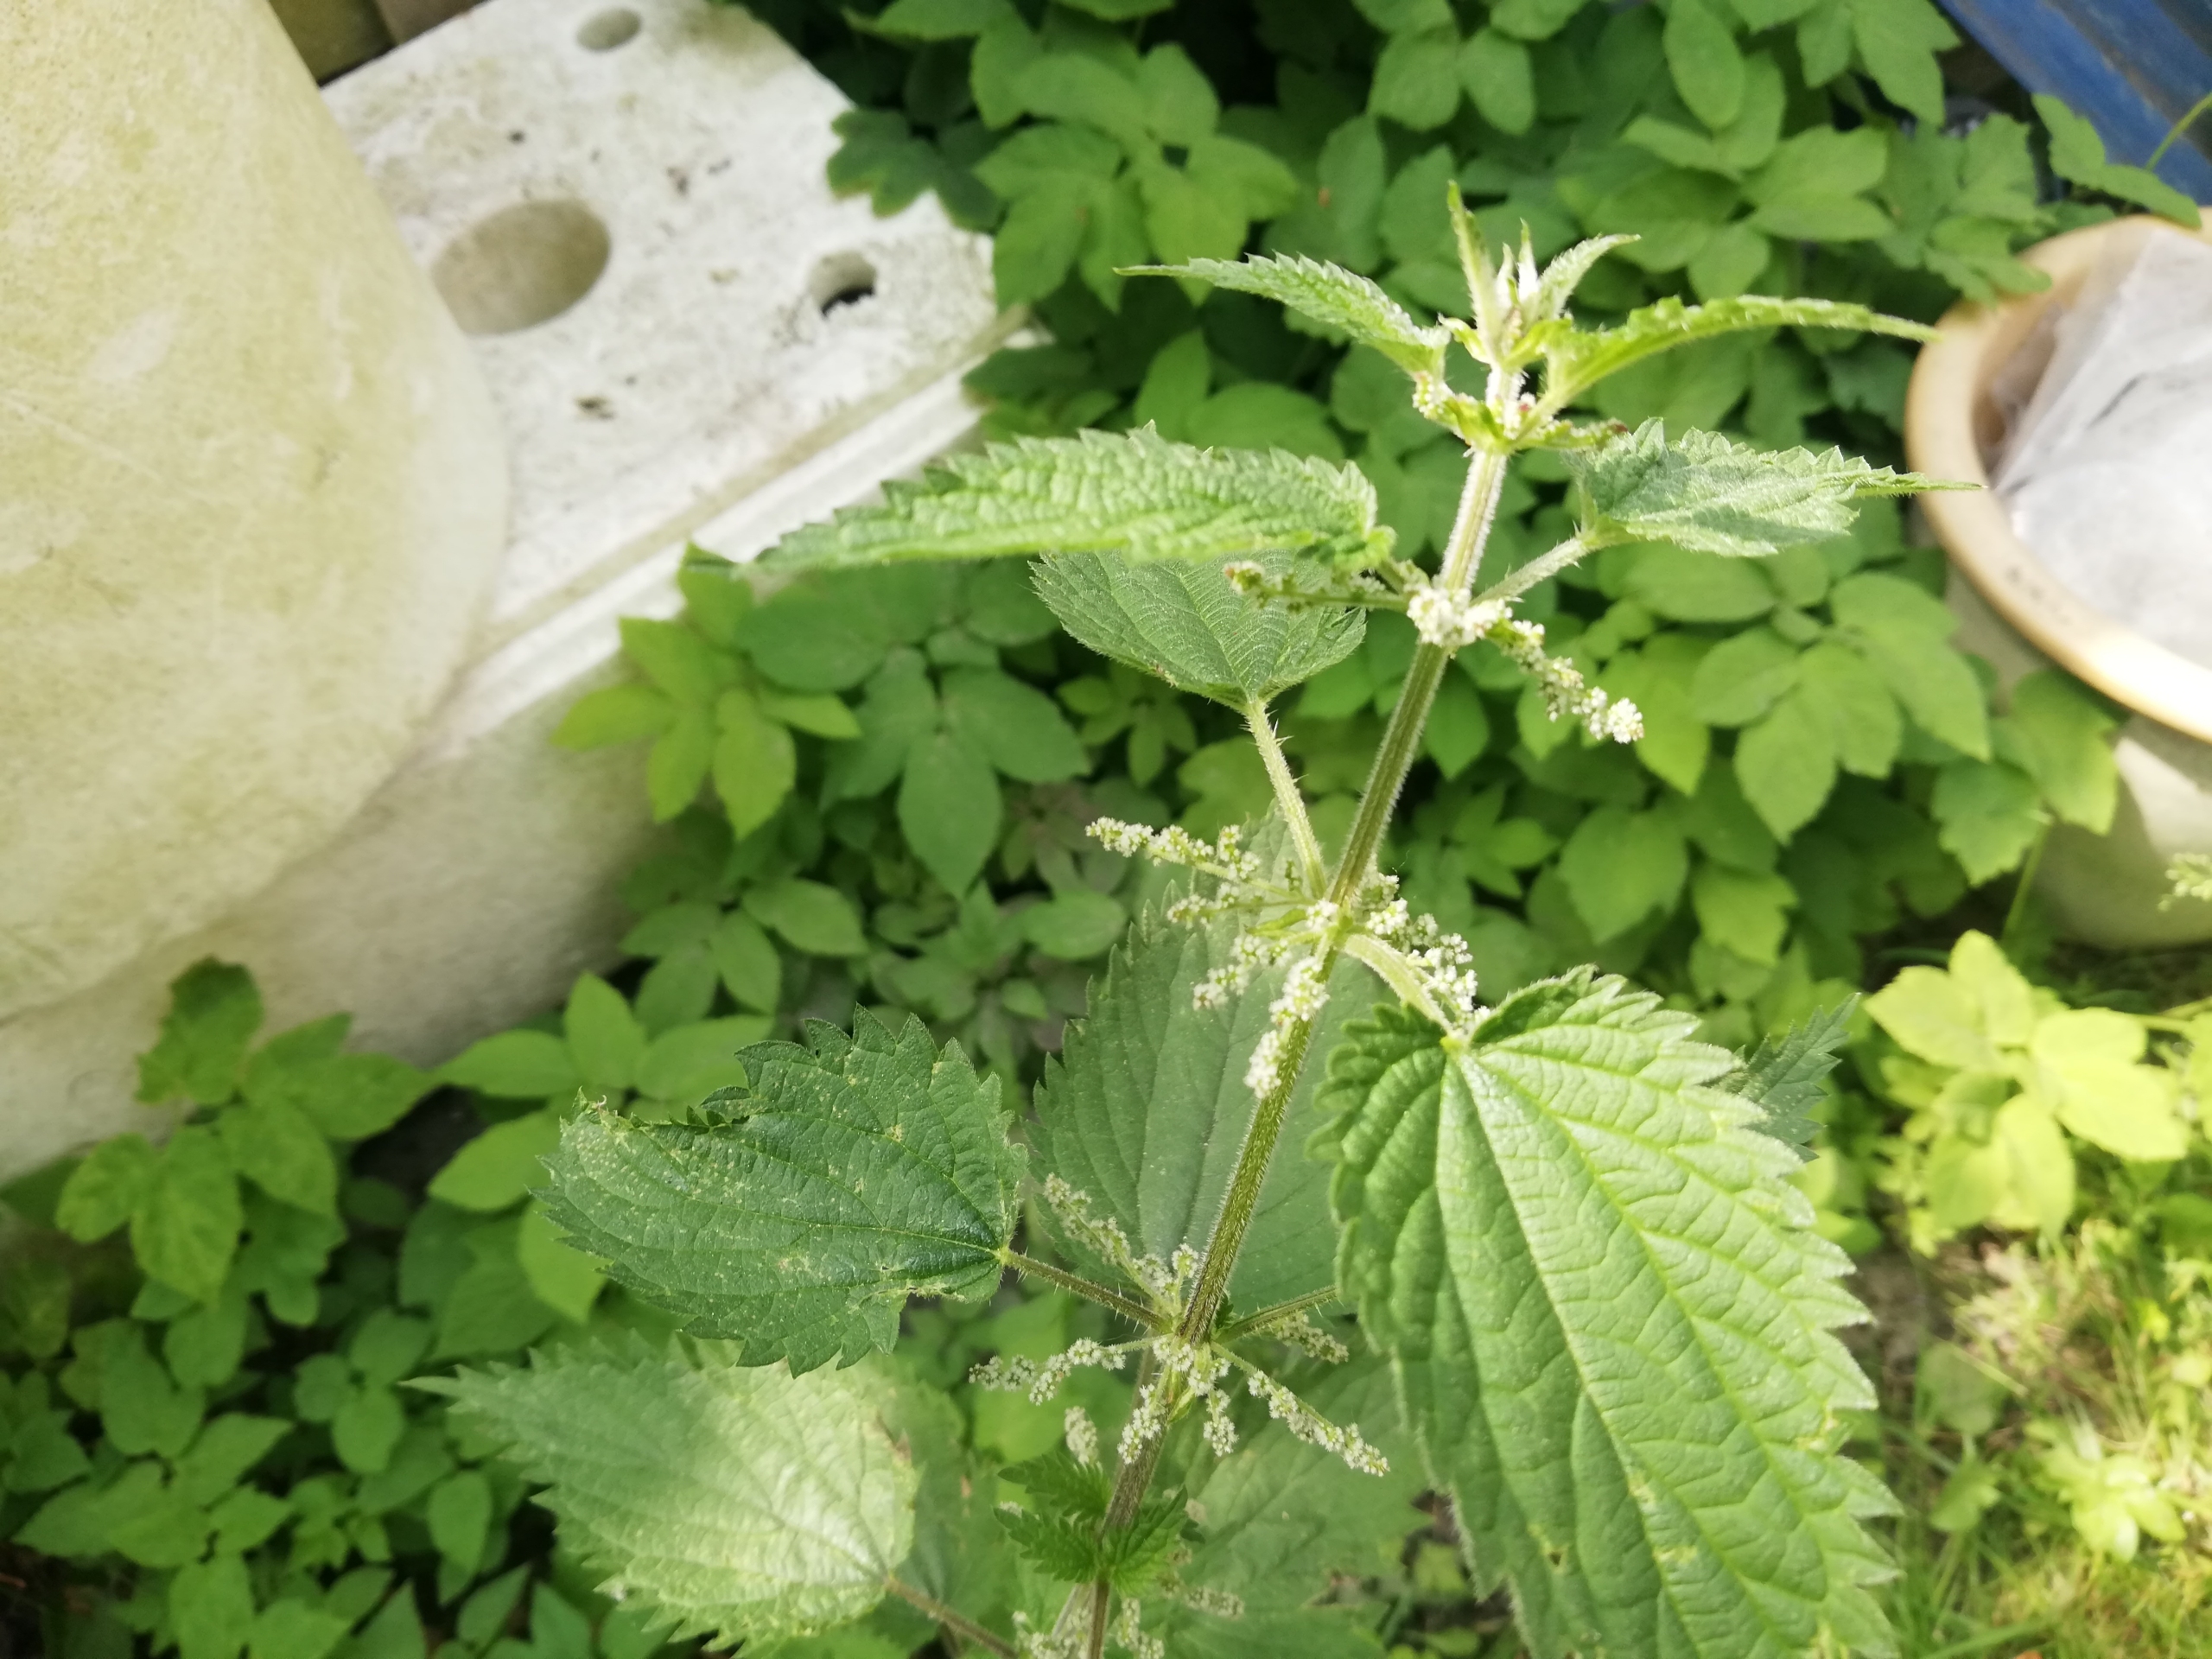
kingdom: Plantae
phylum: Tracheophyta
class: Magnoliopsida
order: Rosales
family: Urticaceae
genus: Urtica
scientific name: Urtica dioica
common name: Stor nælde
